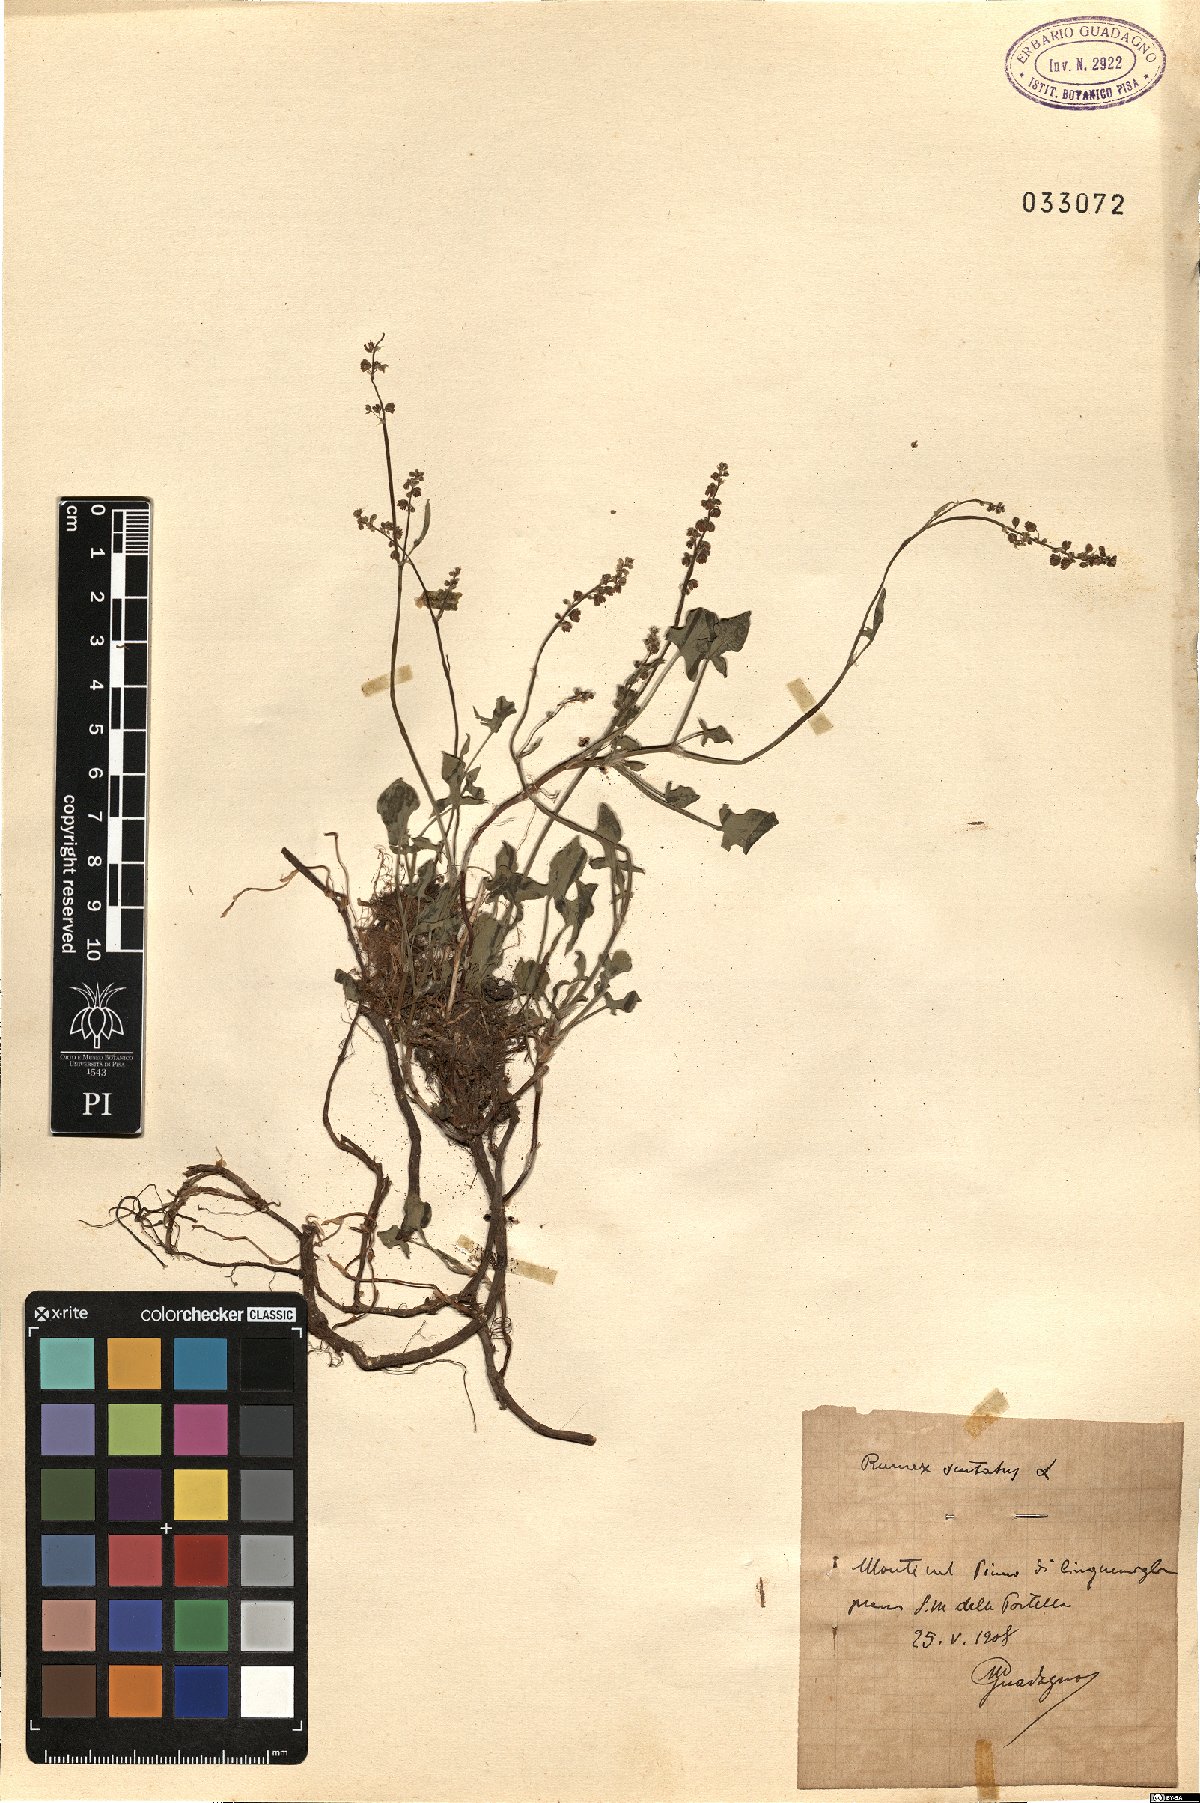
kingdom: Plantae
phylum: Tracheophyta
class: Magnoliopsida
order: Caryophyllales
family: Polygonaceae
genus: Rumex
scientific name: Rumex scutatus
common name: French sorrel
